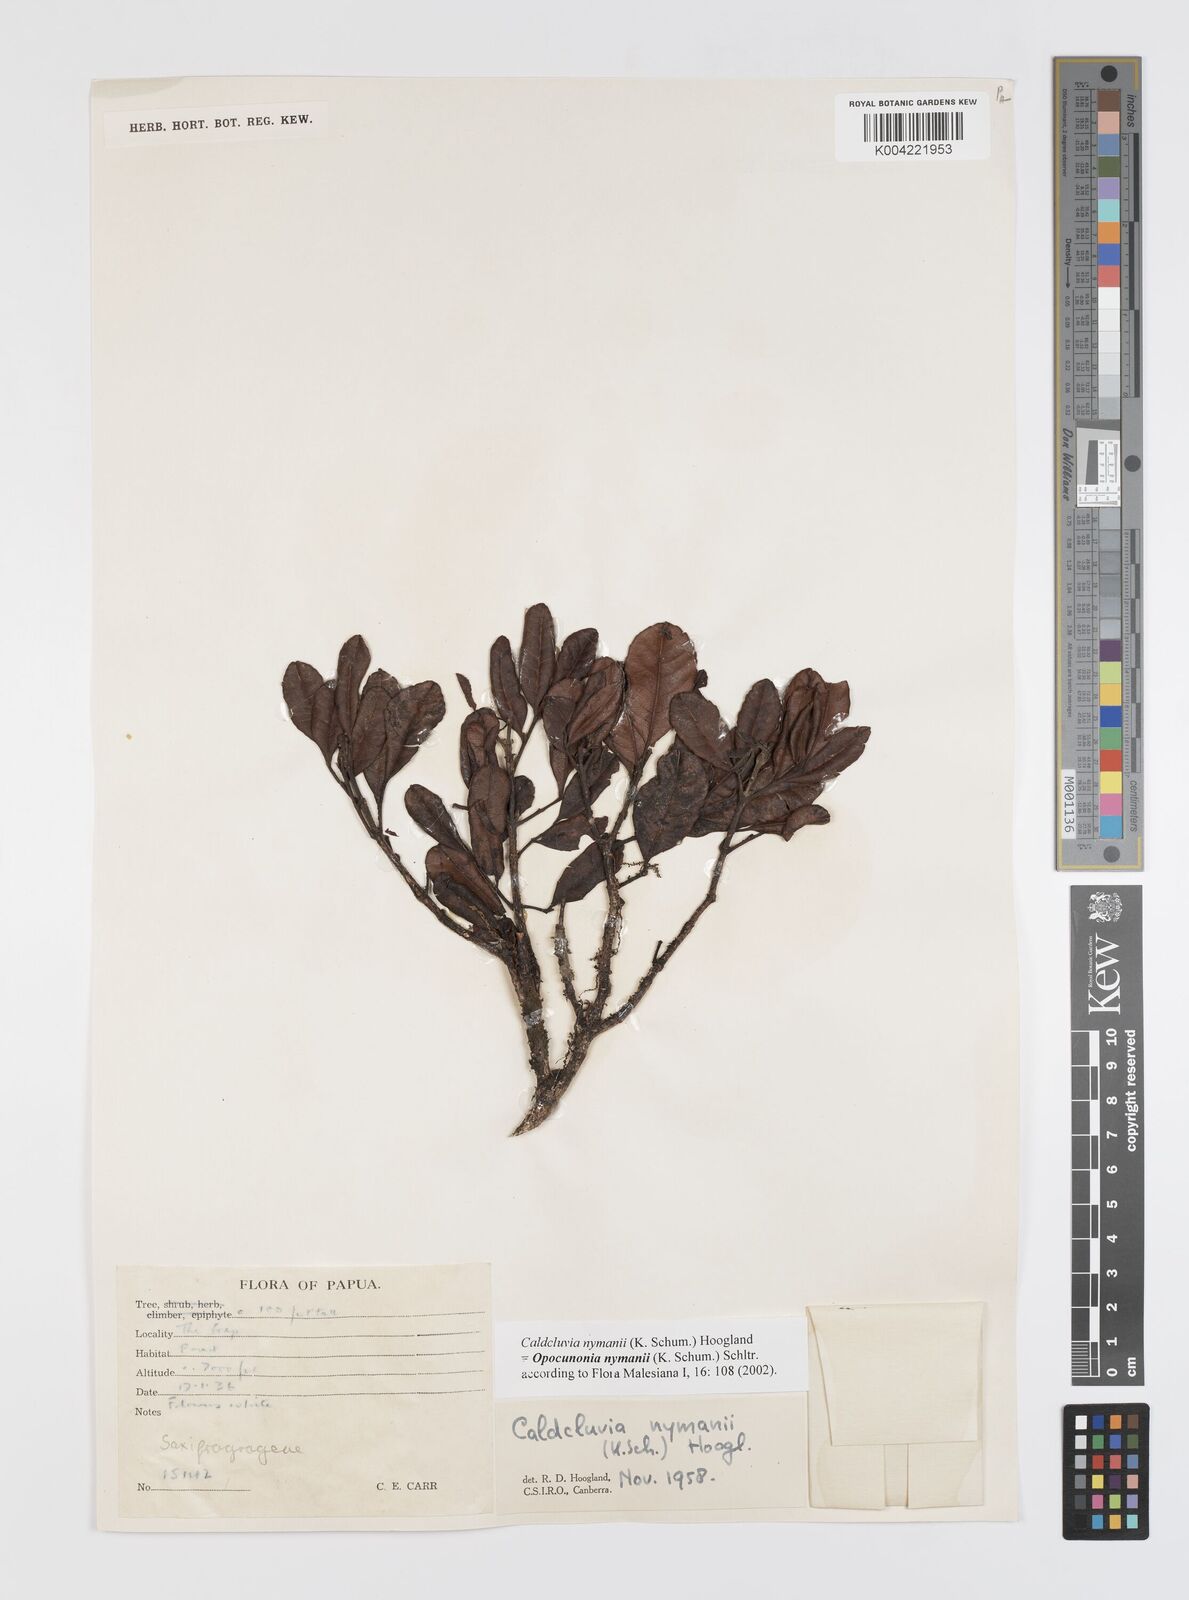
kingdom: Plantae
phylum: Tracheophyta
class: Magnoliopsida
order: Oxalidales
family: Cunoniaceae
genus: Opocunonia
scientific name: Opocunonia nymanii
